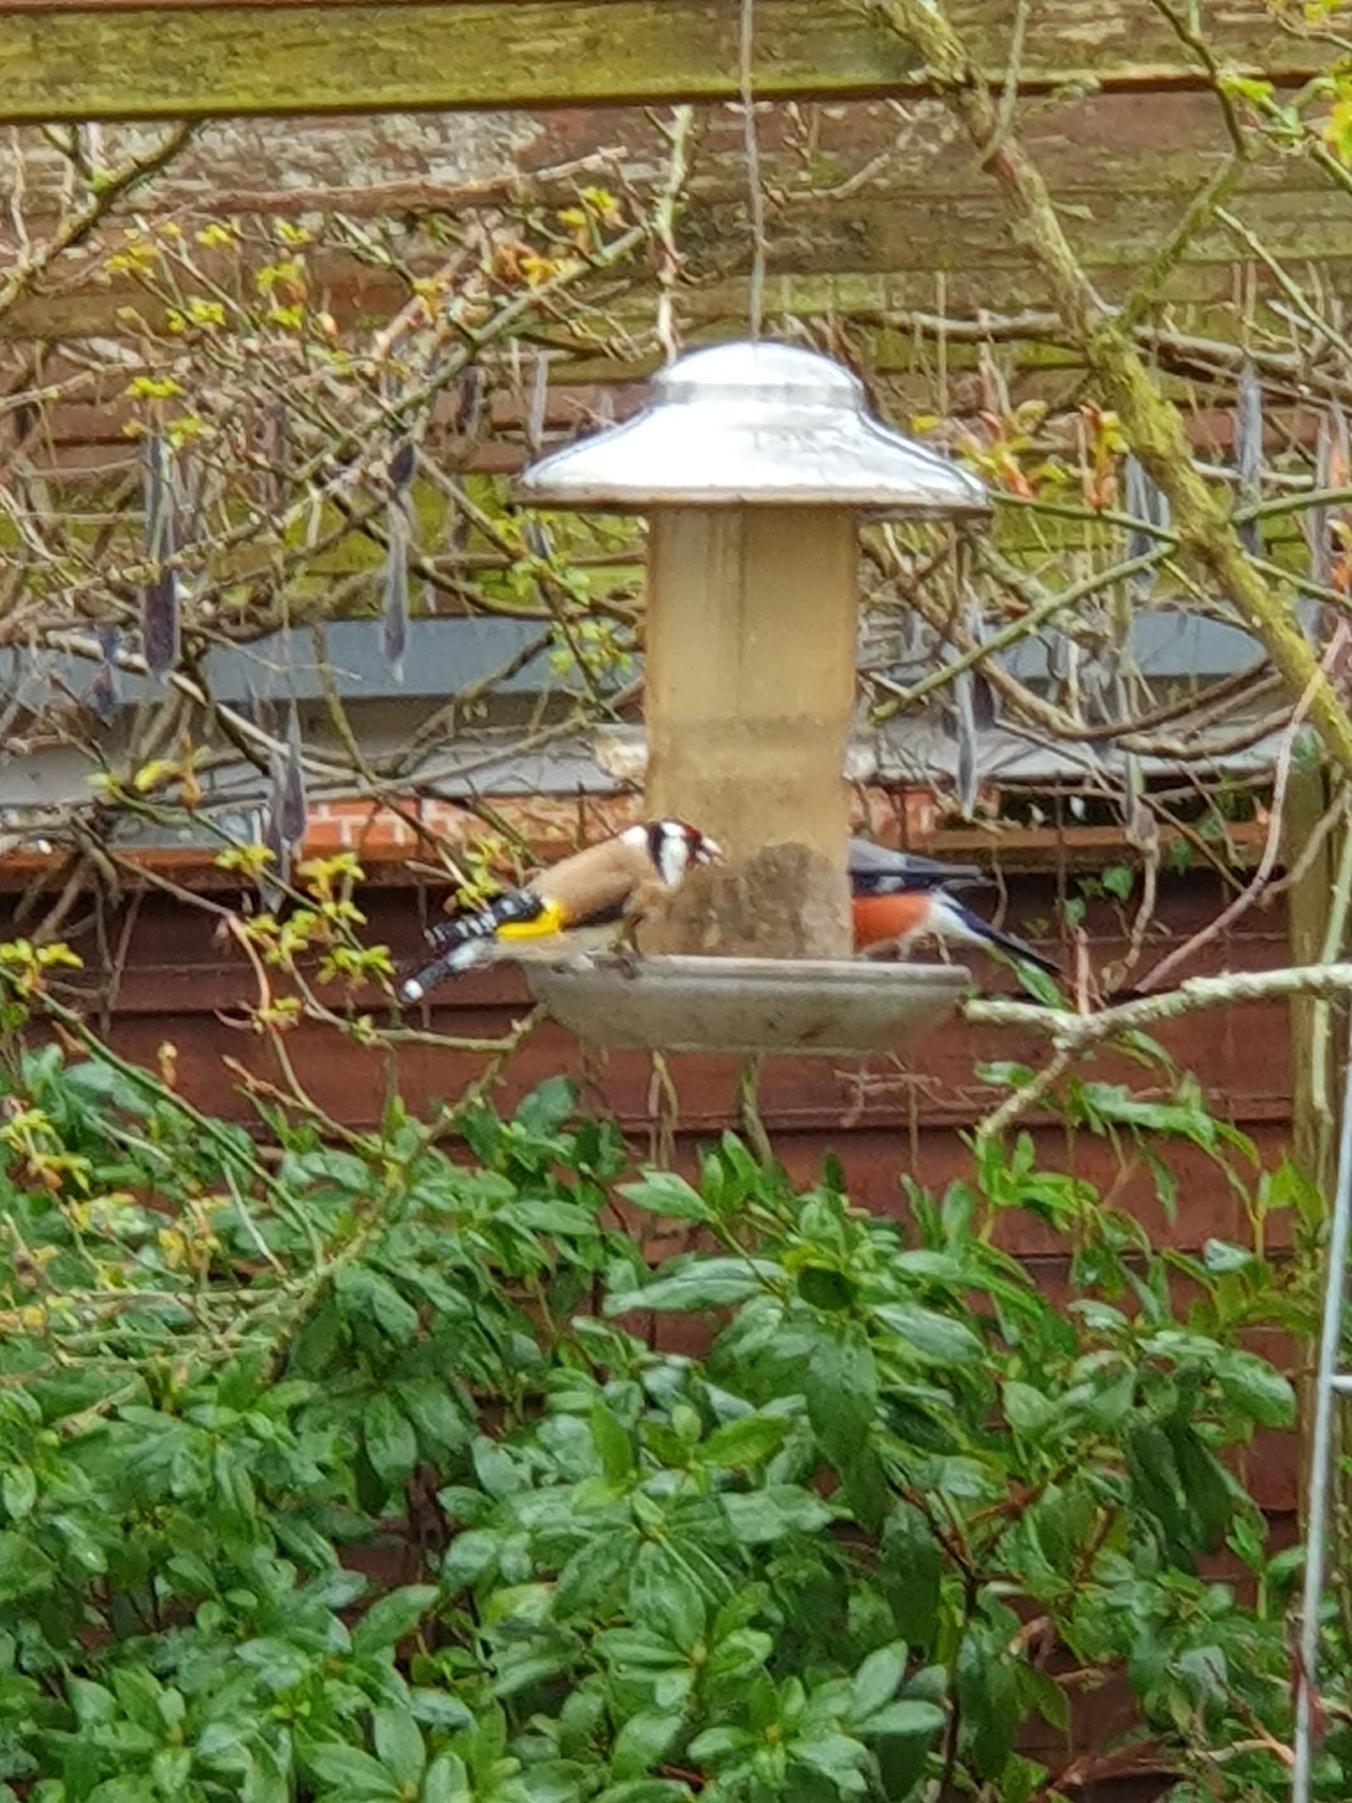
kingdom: Animalia
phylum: Chordata
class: Aves
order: Passeriformes
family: Fringillidae
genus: Carduelis
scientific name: Carduelis carduelis
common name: Stillits
